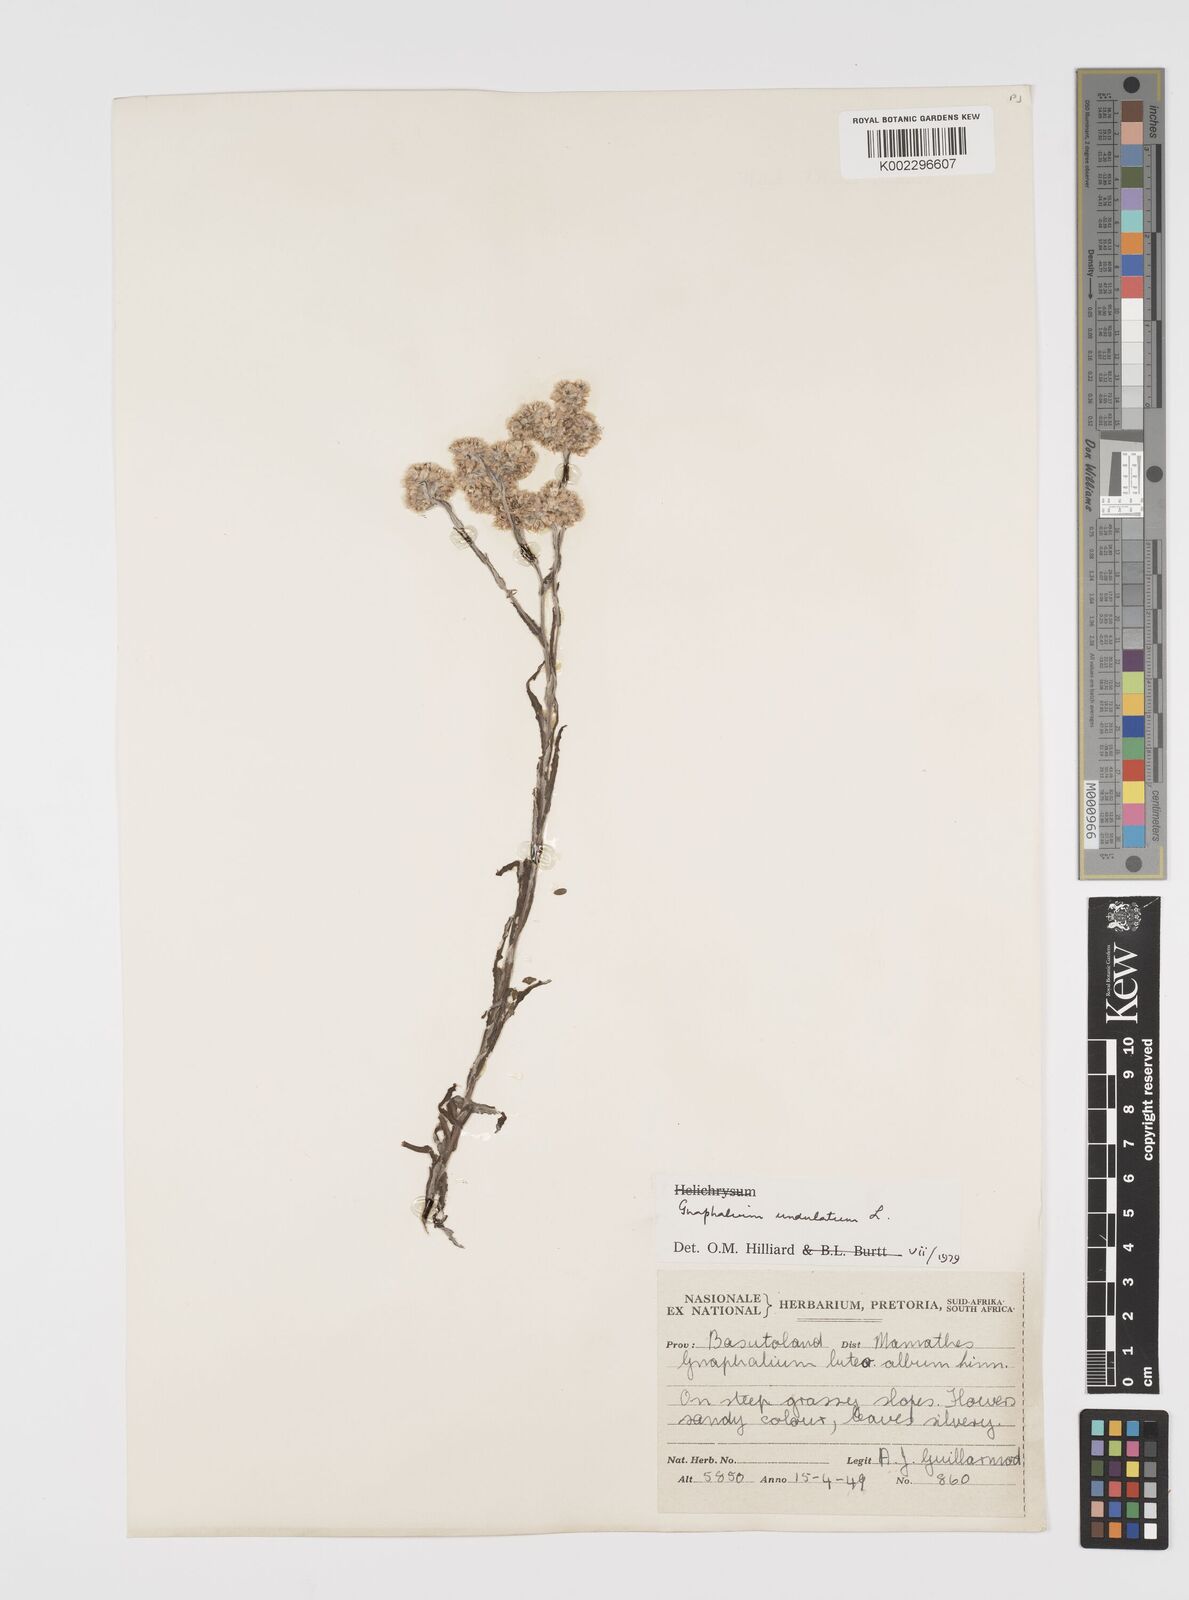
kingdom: Plantae
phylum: Tracheophyta
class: Magnoliopsida
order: Asterales
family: Asteraceae
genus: Pseudognaphalium
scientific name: Pseudognaphalium undulatum
